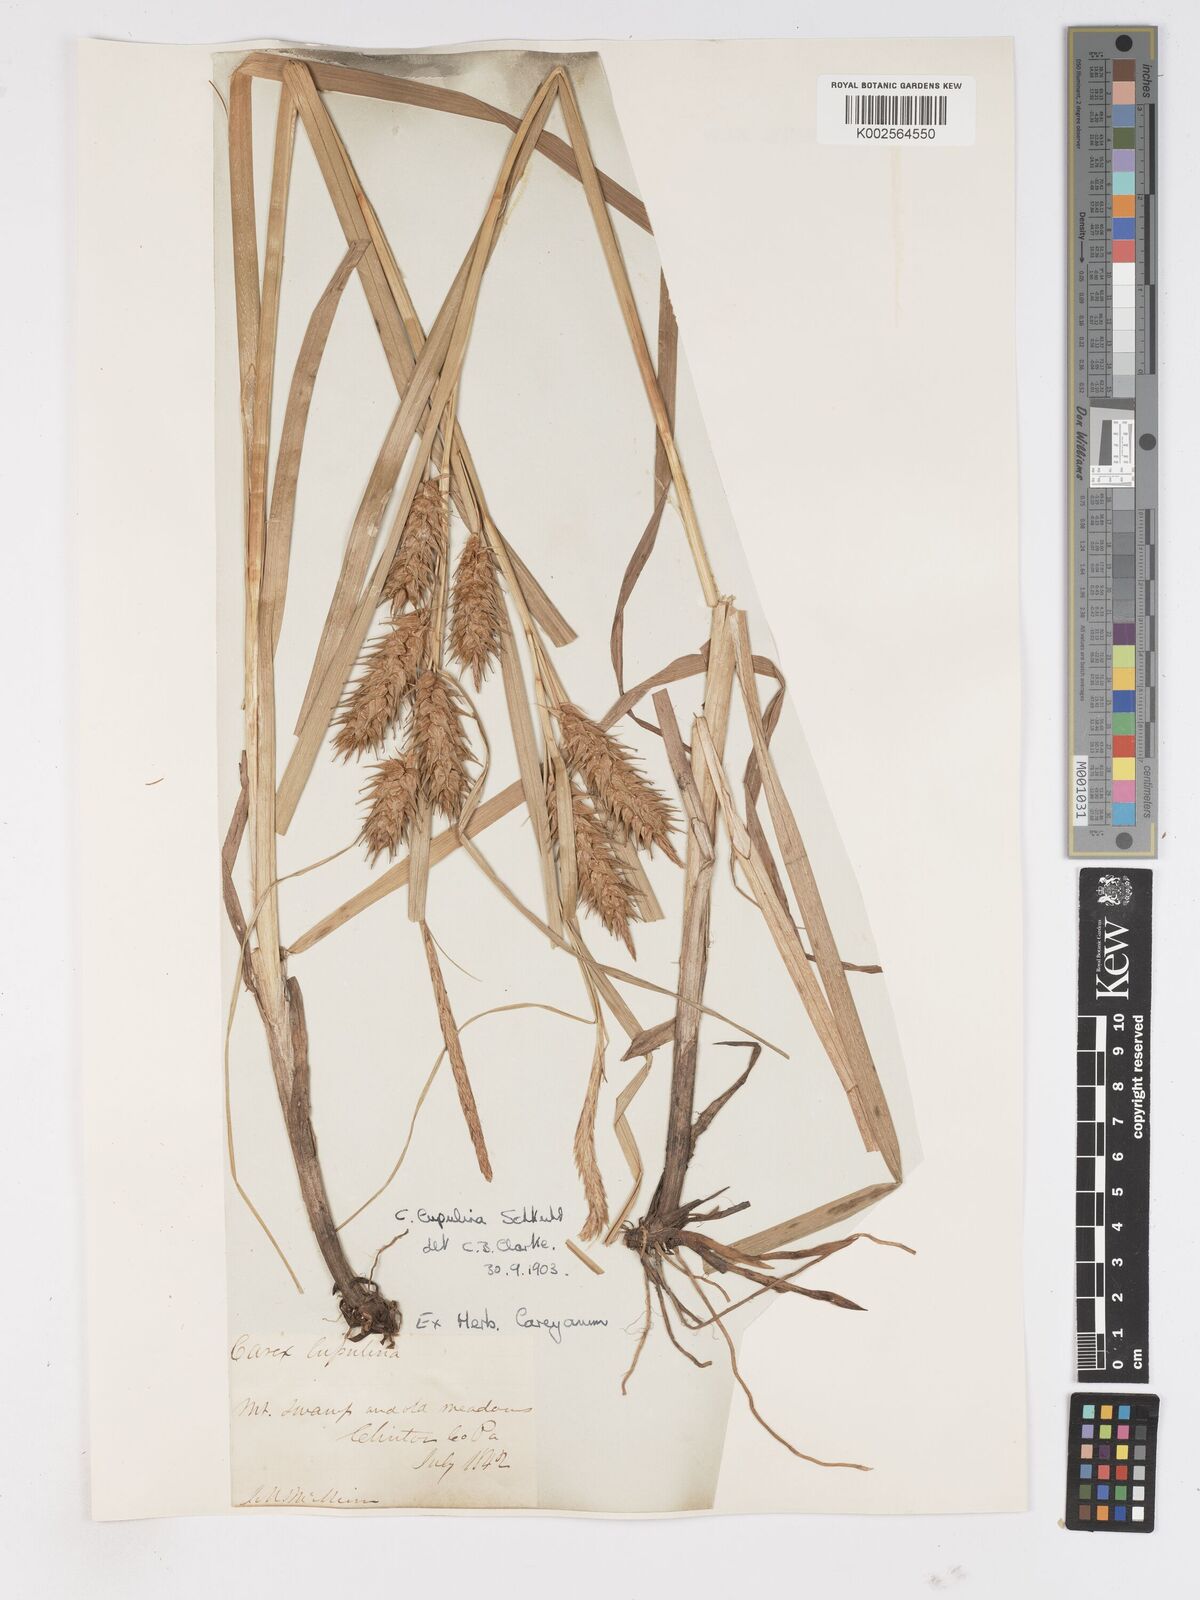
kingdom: Plantae
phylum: Tracheophyta
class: Liliopsida
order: Poales
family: Cyperaceae
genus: Carex
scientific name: Carex lupulina
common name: Hop sedge
